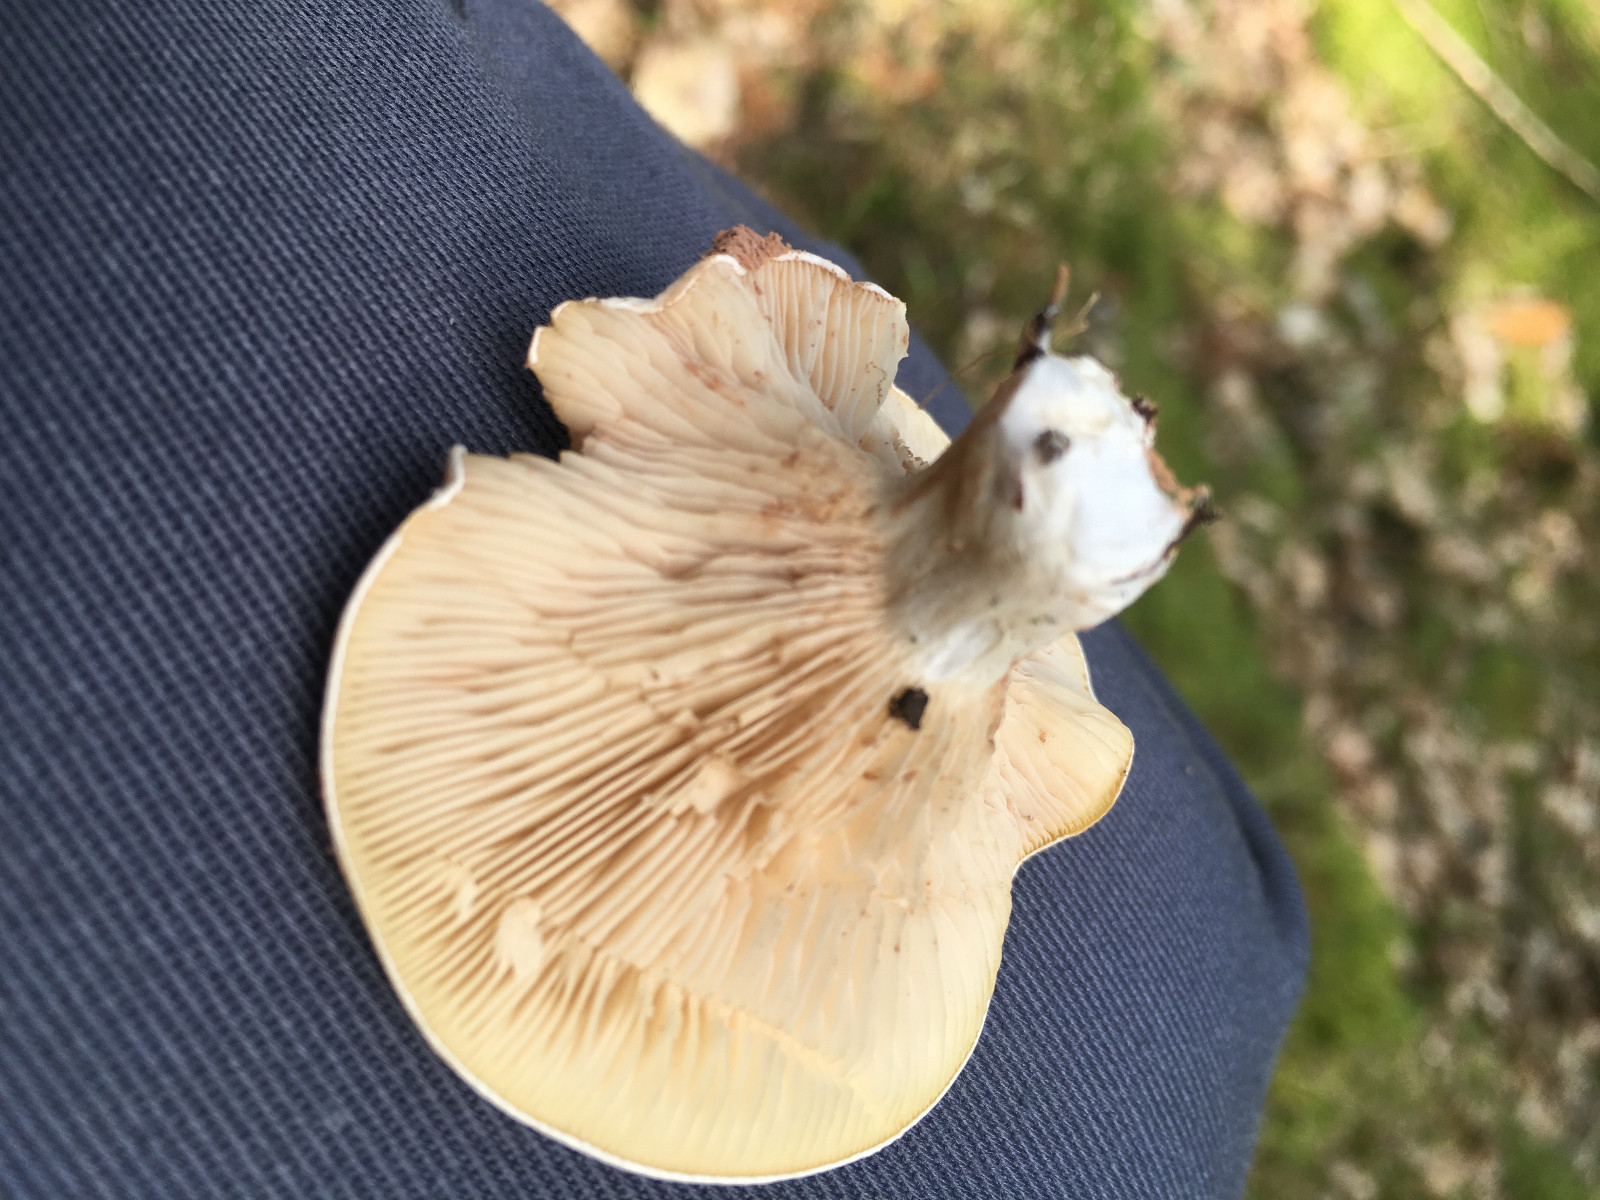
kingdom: Fungi
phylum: Basidiomycota
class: Agaricomycetes
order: Agaricales
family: Entolomataceae
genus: Clitopilus
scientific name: Clitopilus prunulus
